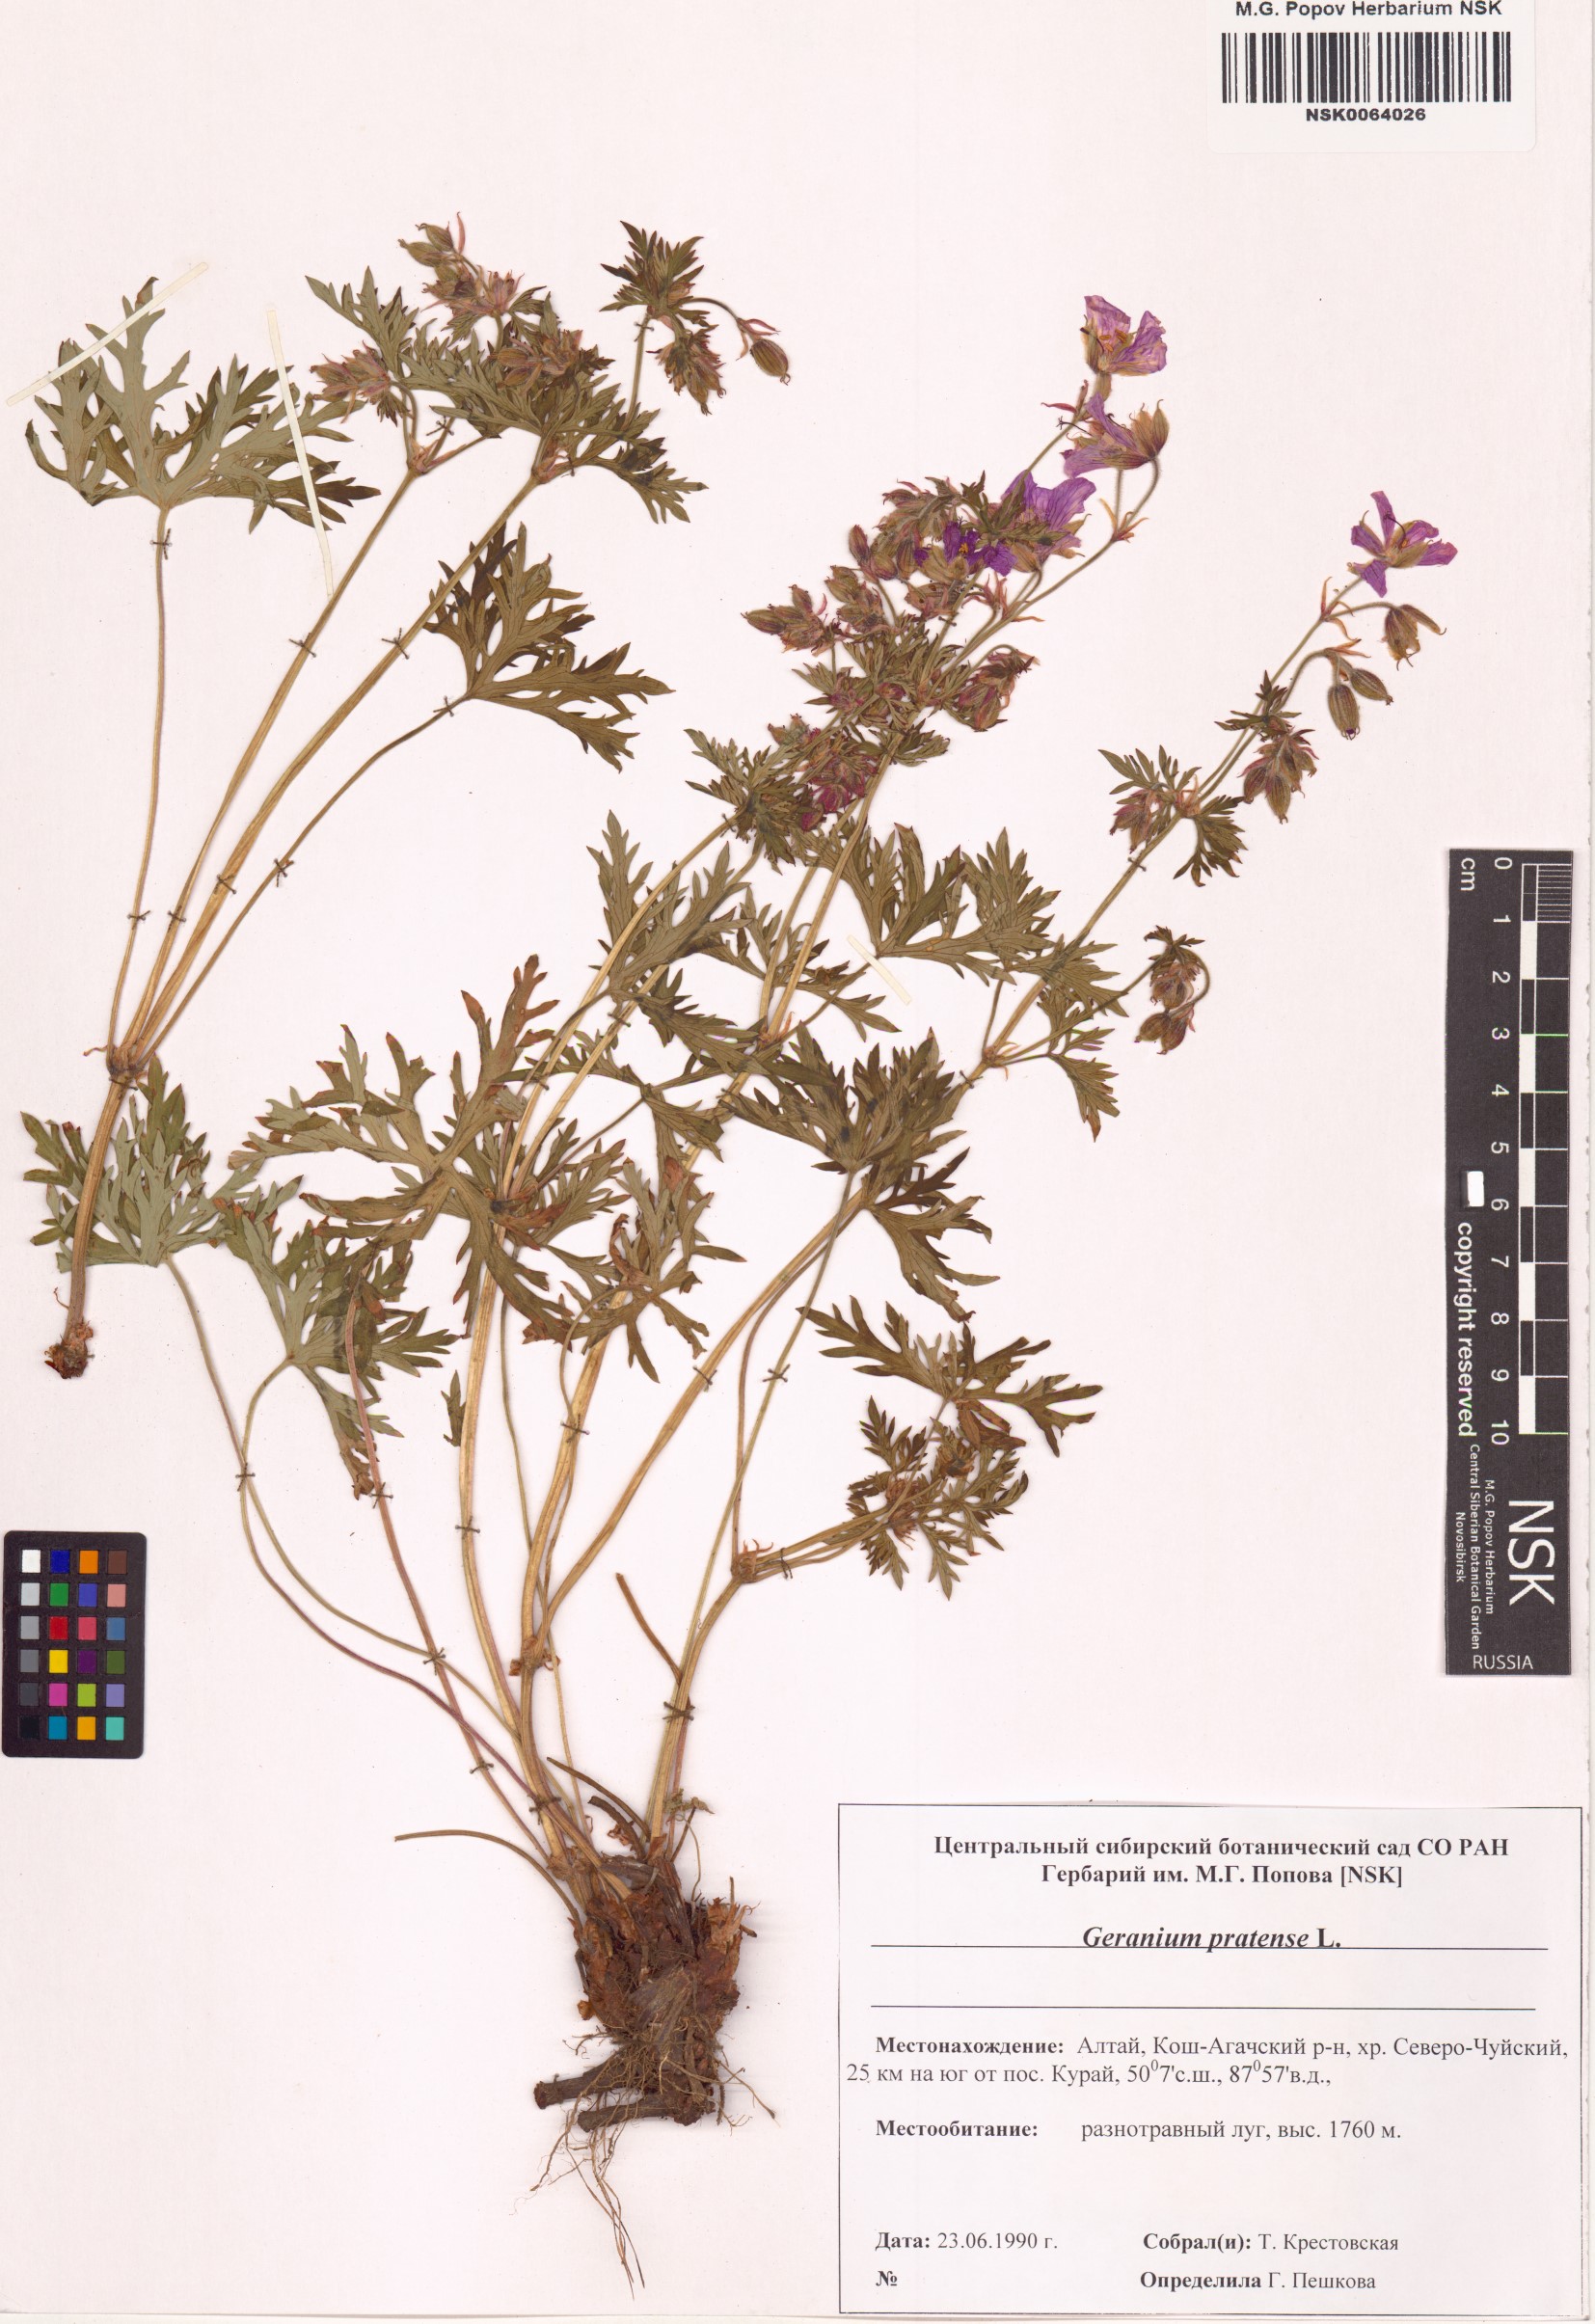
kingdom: Plantae
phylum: Tracheophyta
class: Magnoliopsida
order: Geraniales
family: Geraniaceae
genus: Geranium
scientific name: Geranium pratense
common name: Meadow crane's-bill
